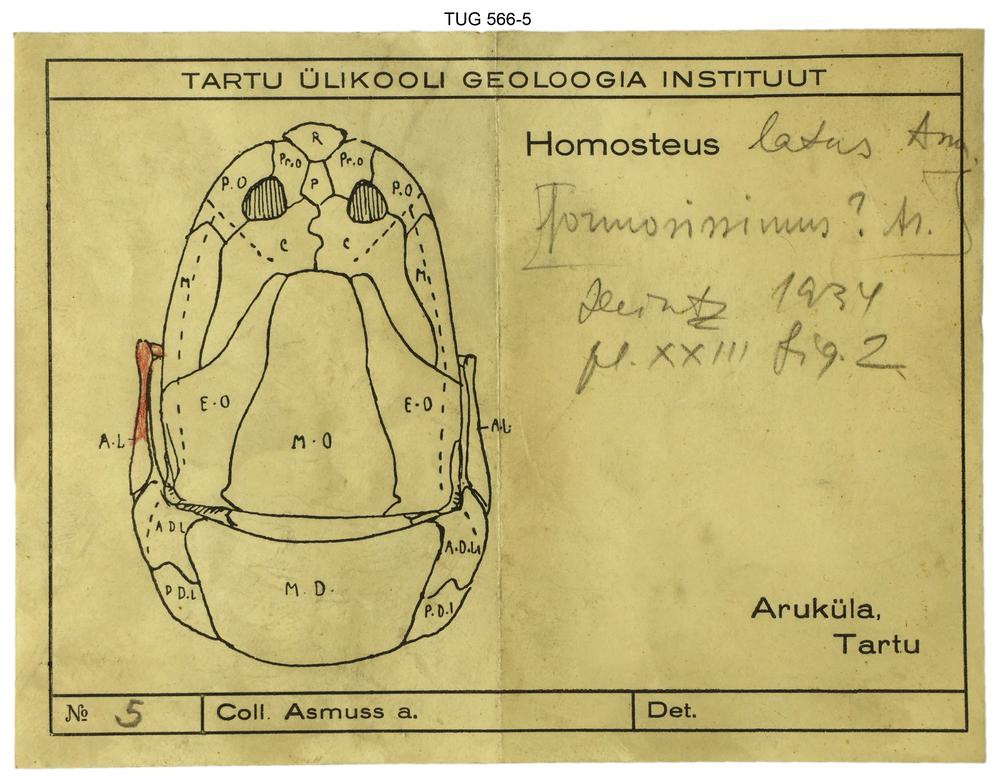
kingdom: Animalia
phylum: Chordata
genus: Homosteus
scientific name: Homosteus latus
